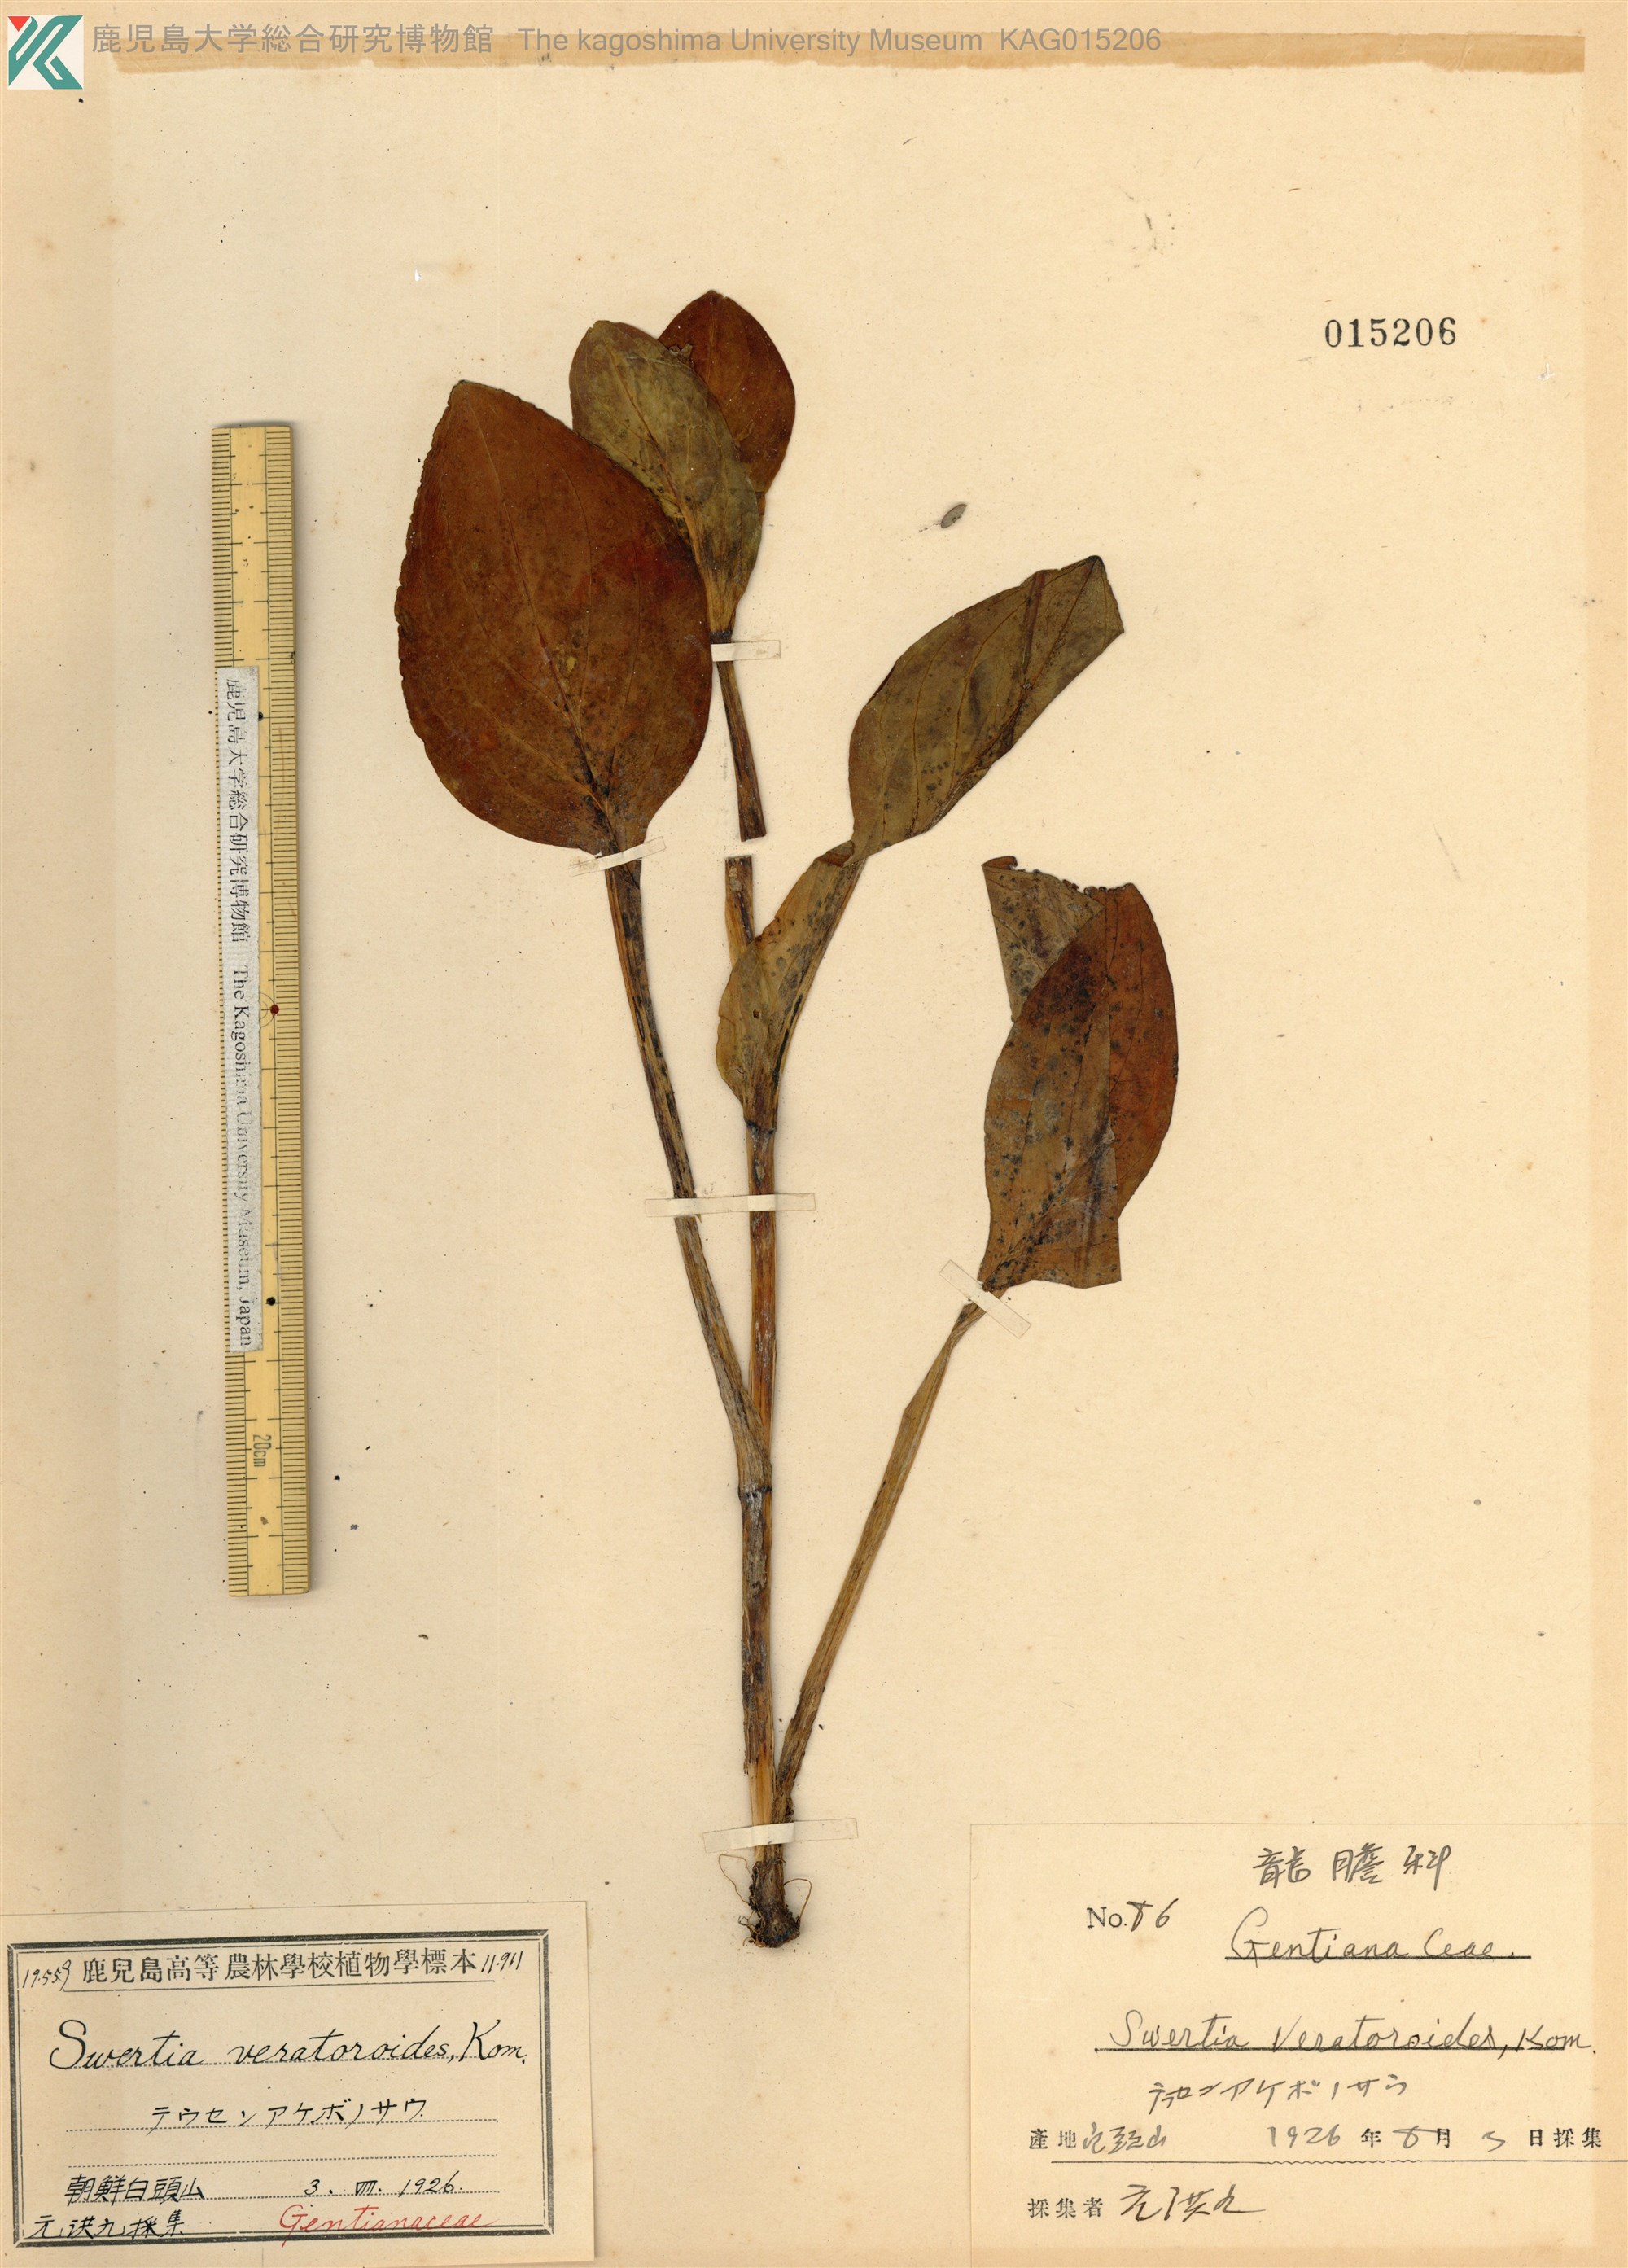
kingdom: Plantae
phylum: Tracheophyta
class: Magnoliopsida
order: Gentianales
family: Gentianaceae
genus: Swertia
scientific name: Swertia veratroides
